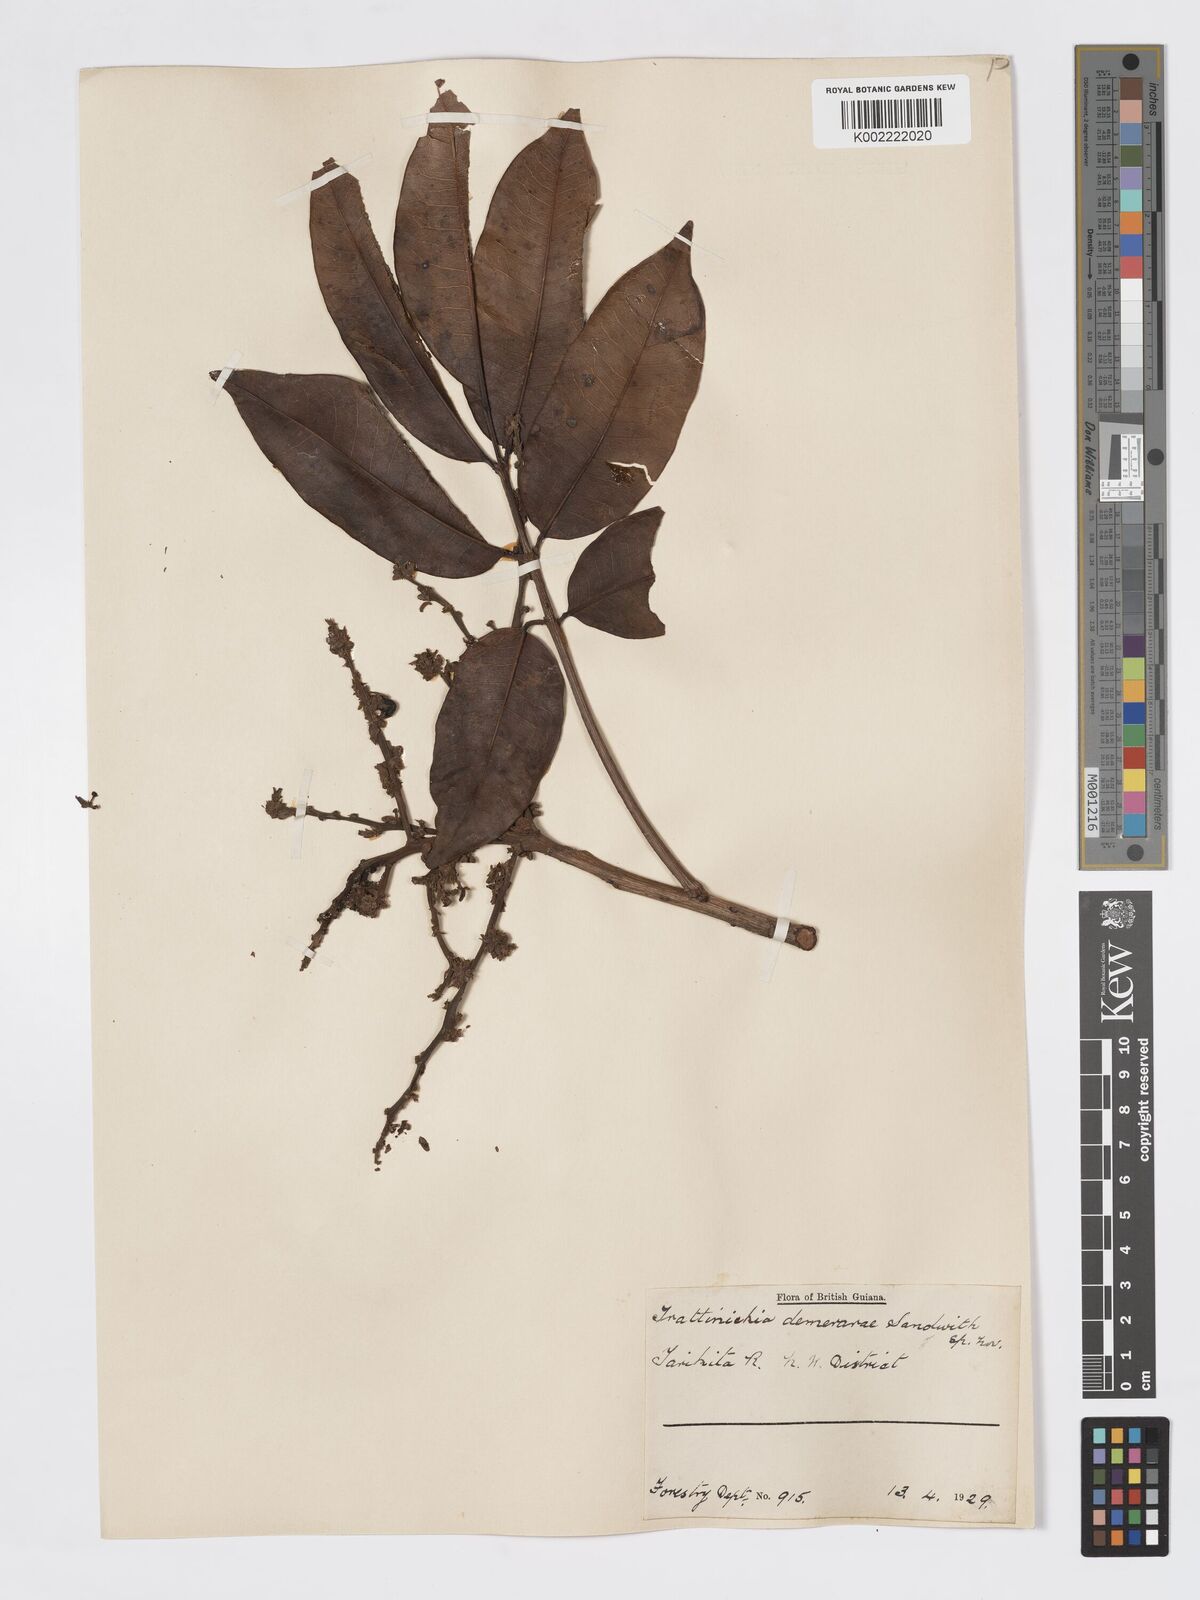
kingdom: Plantae
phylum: Tracheophyta
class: Magnoliopsida
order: Sapindales
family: Burseraceae
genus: Trattinnickia
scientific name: Trattinnickia demerarae
